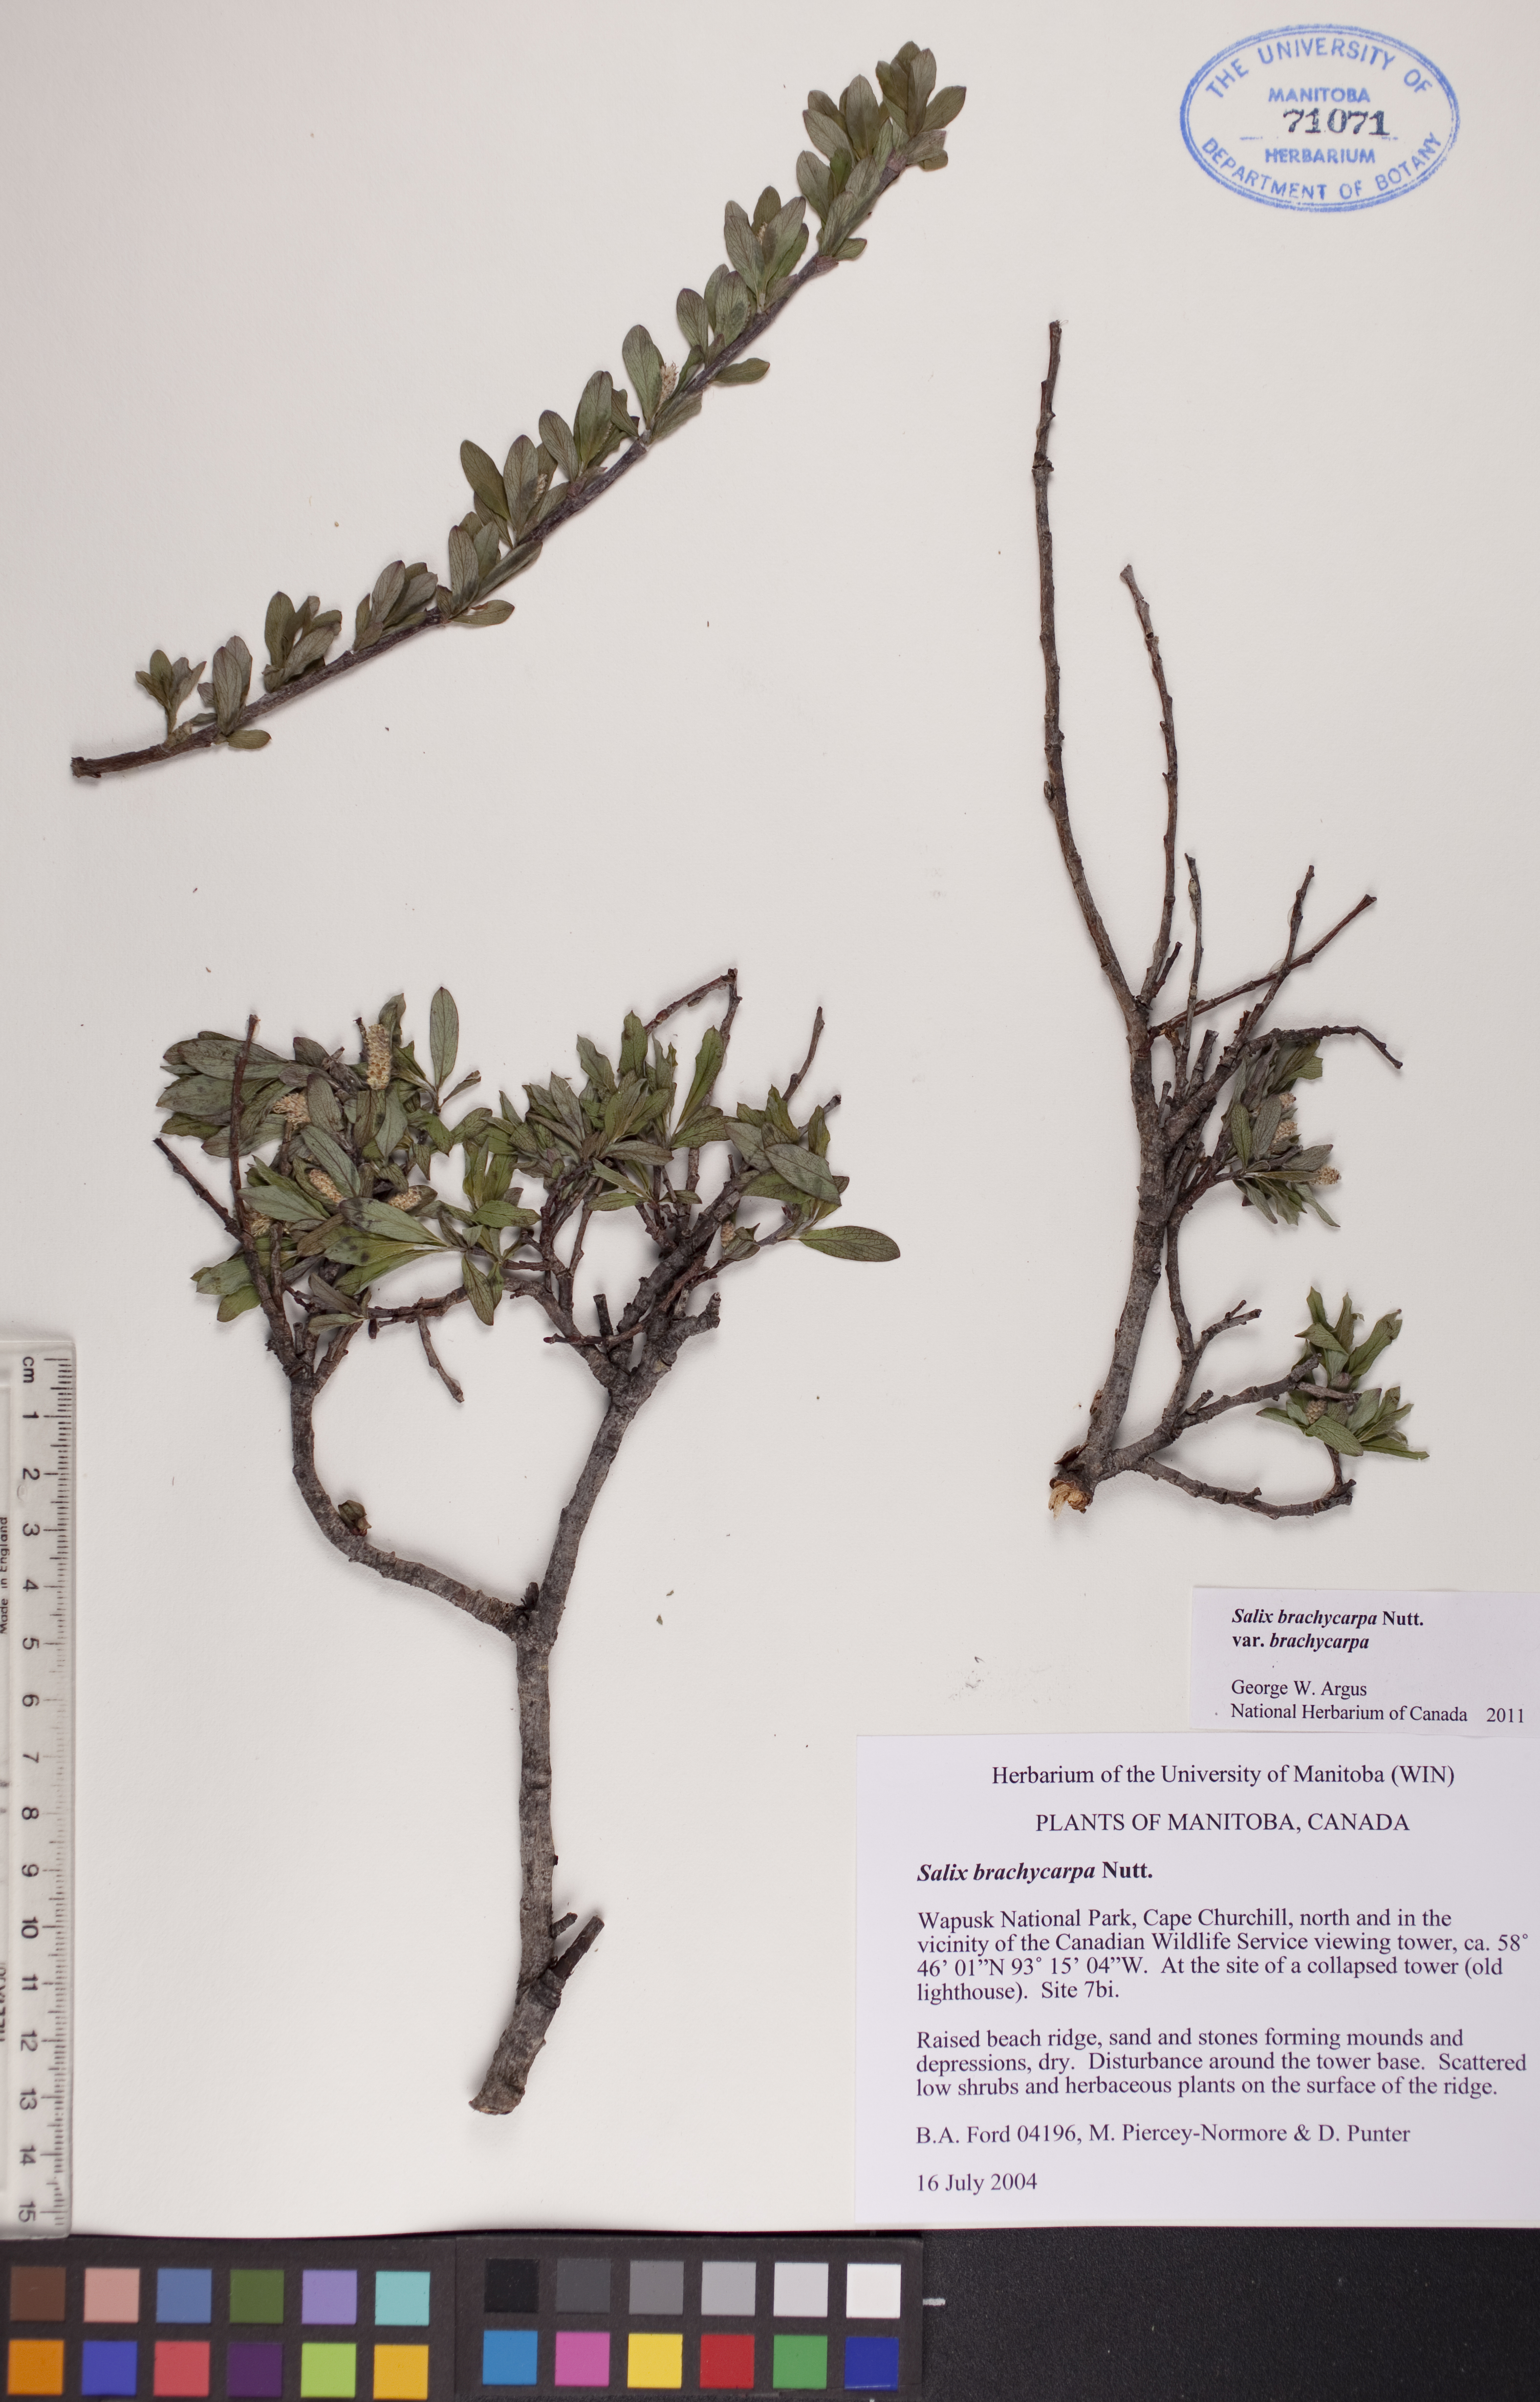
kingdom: Plantae
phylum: Tracheophyta
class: Magnoliopsida
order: Malpighiales
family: Salicaceae
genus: Salix
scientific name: Salix brachycarpa
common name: Barren-ground willow
